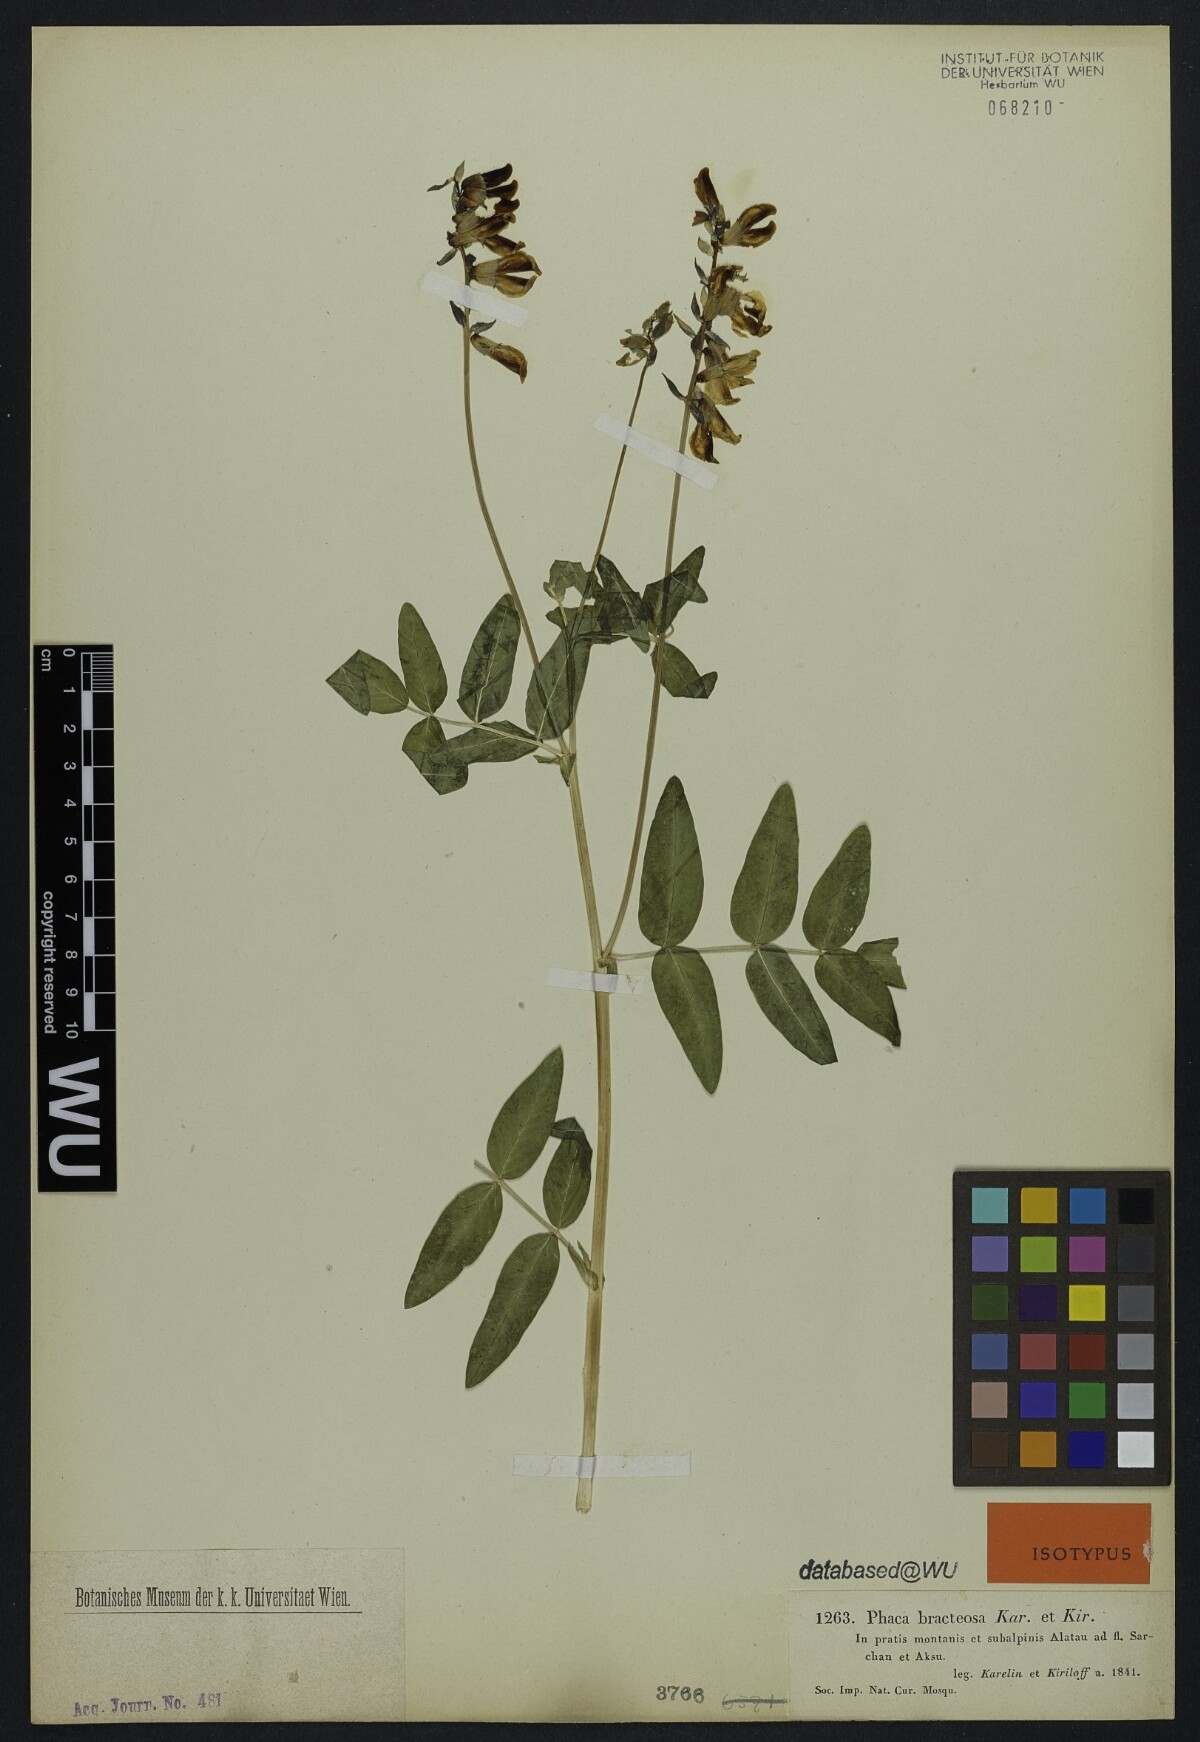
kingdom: Plantae
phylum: Tracheophyta
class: Magnoliopsida
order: Fabales
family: Fabaceae
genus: Astragalus
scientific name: Astragalus aksuensis
